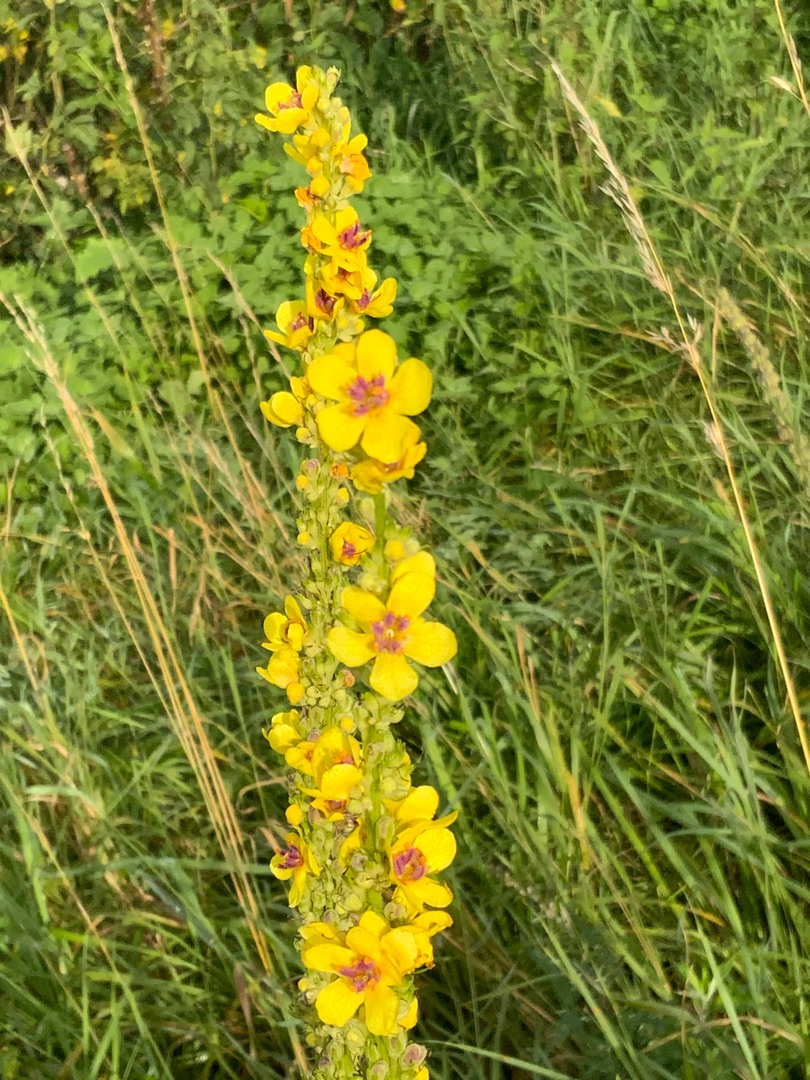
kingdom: Plantae
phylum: Tracheophyta
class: Magnoliopsida
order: Lamiales
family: Scrophulariaceae
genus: Verbascum
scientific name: Verbascum nigrum
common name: Mørk kongelys
